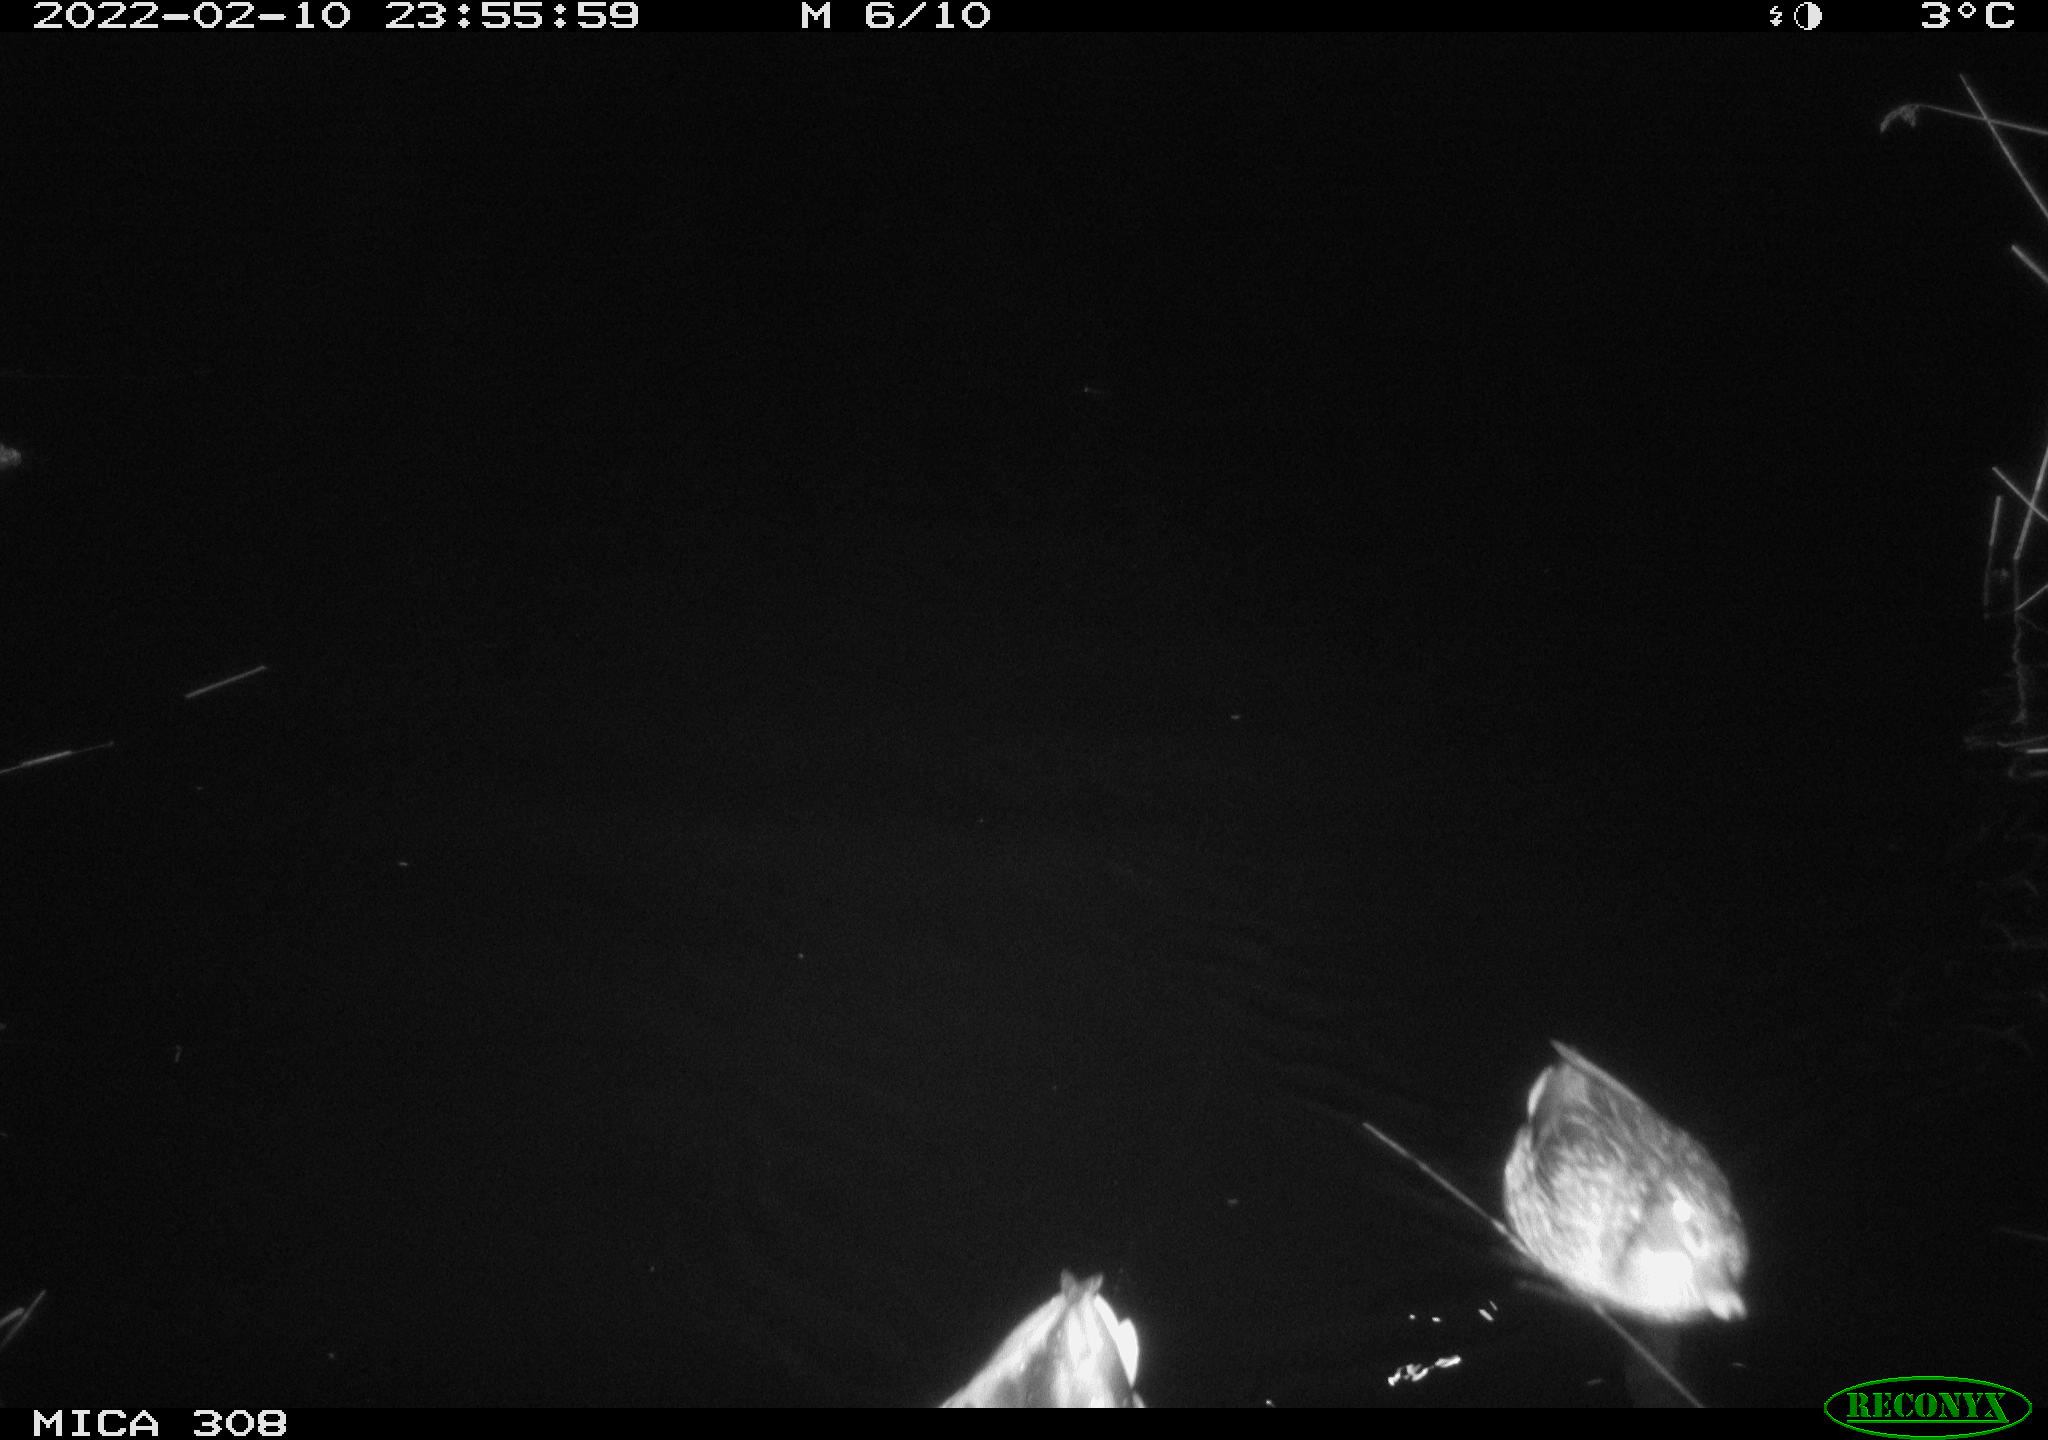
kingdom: Animalia
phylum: Chordata
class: Aves
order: Anseriformes
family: Anatidae
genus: Anas
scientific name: Anas platyrhynchos
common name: Mallard
